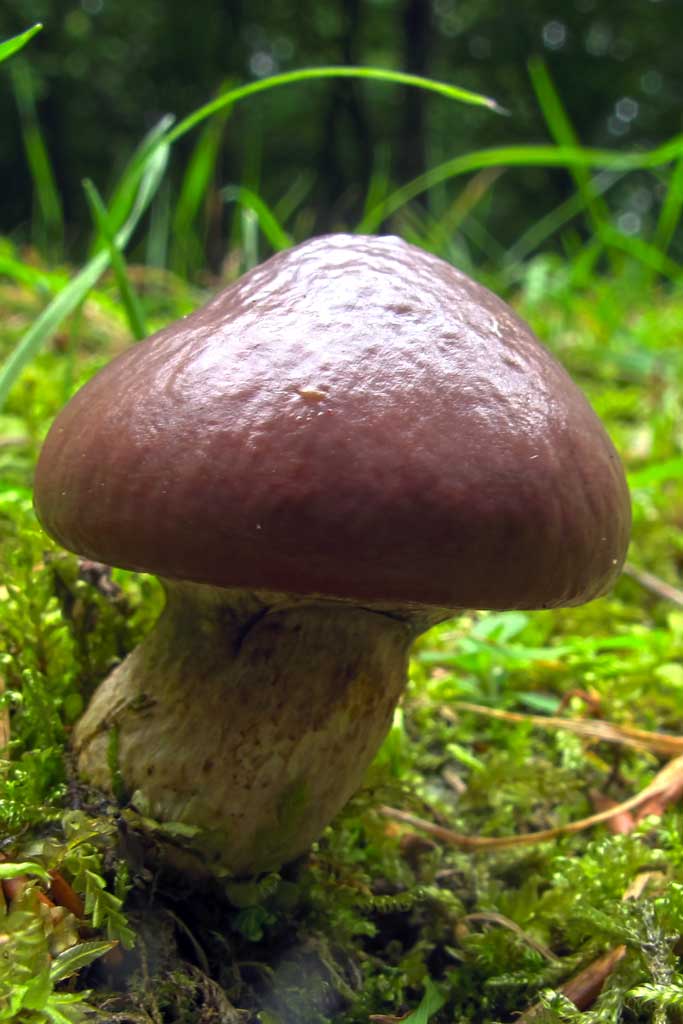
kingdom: Fungi
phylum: Basidiomycota
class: Agaricomycetes
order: Boletales
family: Suillaceae
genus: Suillus
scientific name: Suillus luteus
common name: brungul slimrørhat
